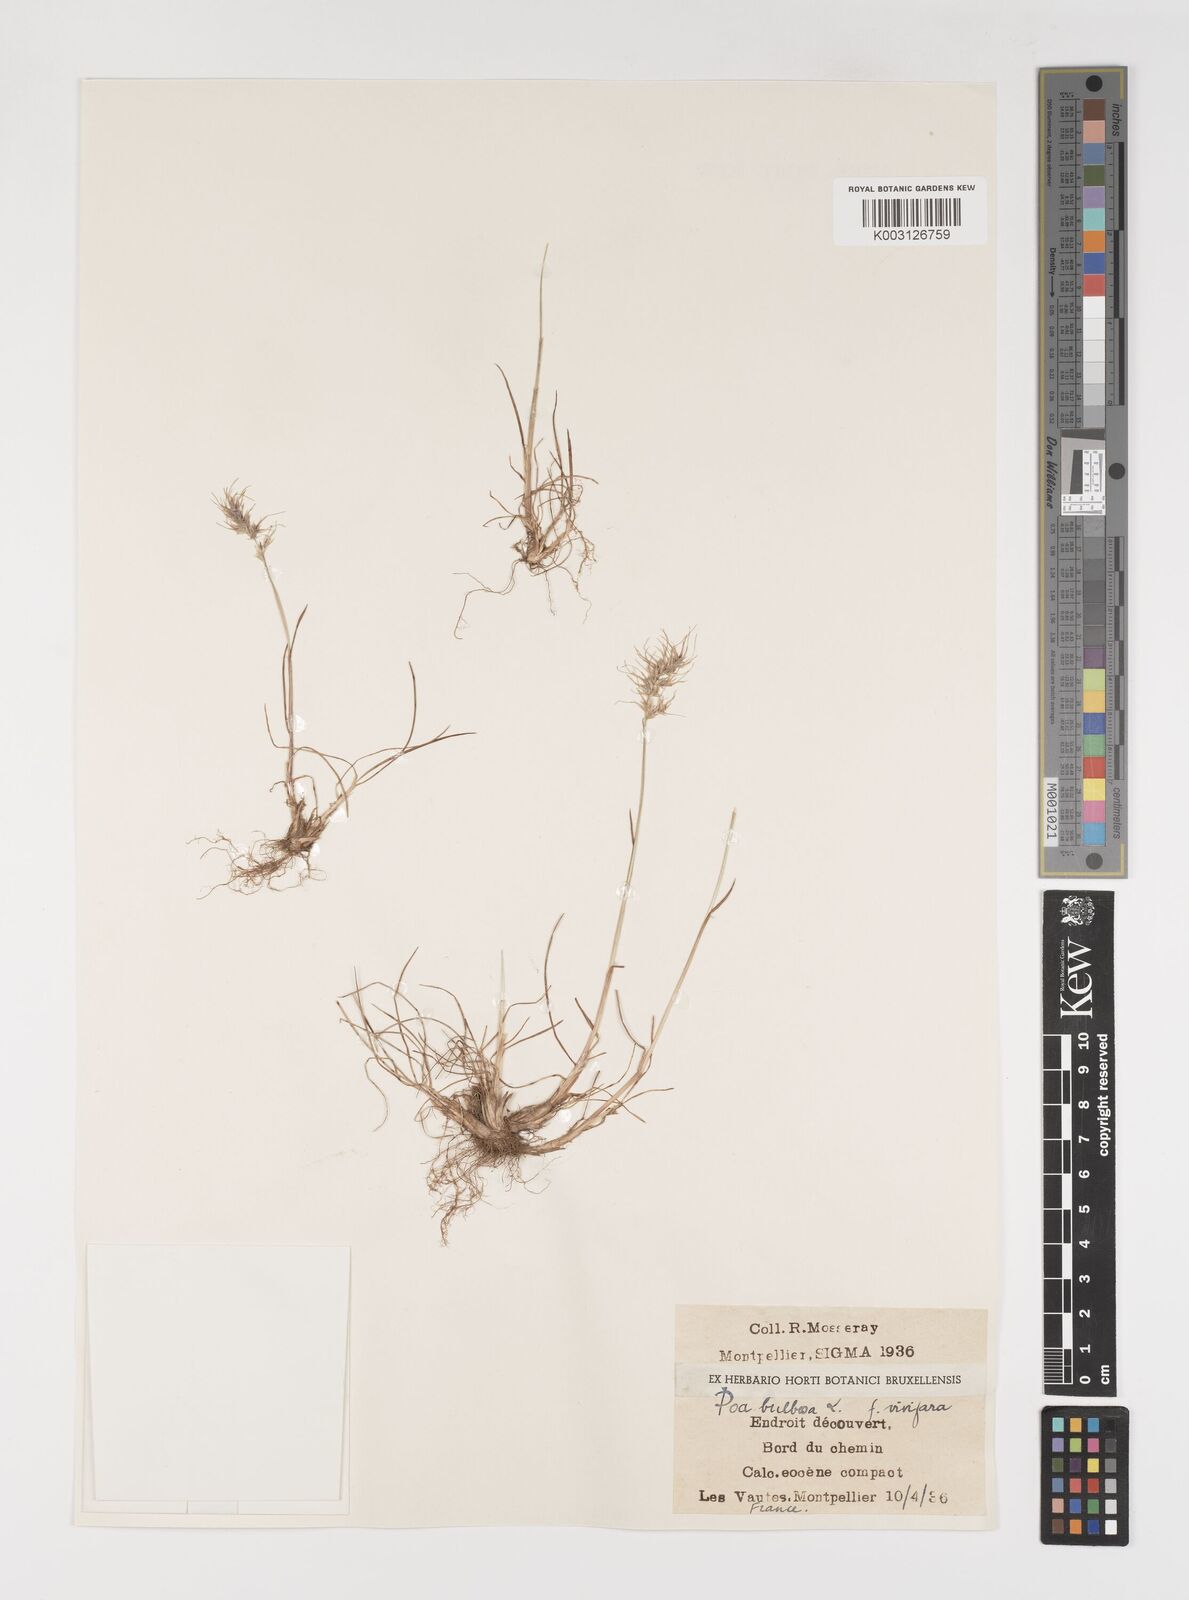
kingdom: Plantae
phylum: Tracheophyta
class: Liliopsida
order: Poales
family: Poaceae
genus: Poa
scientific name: Poa bulbosa
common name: Bulbous bluegrass
